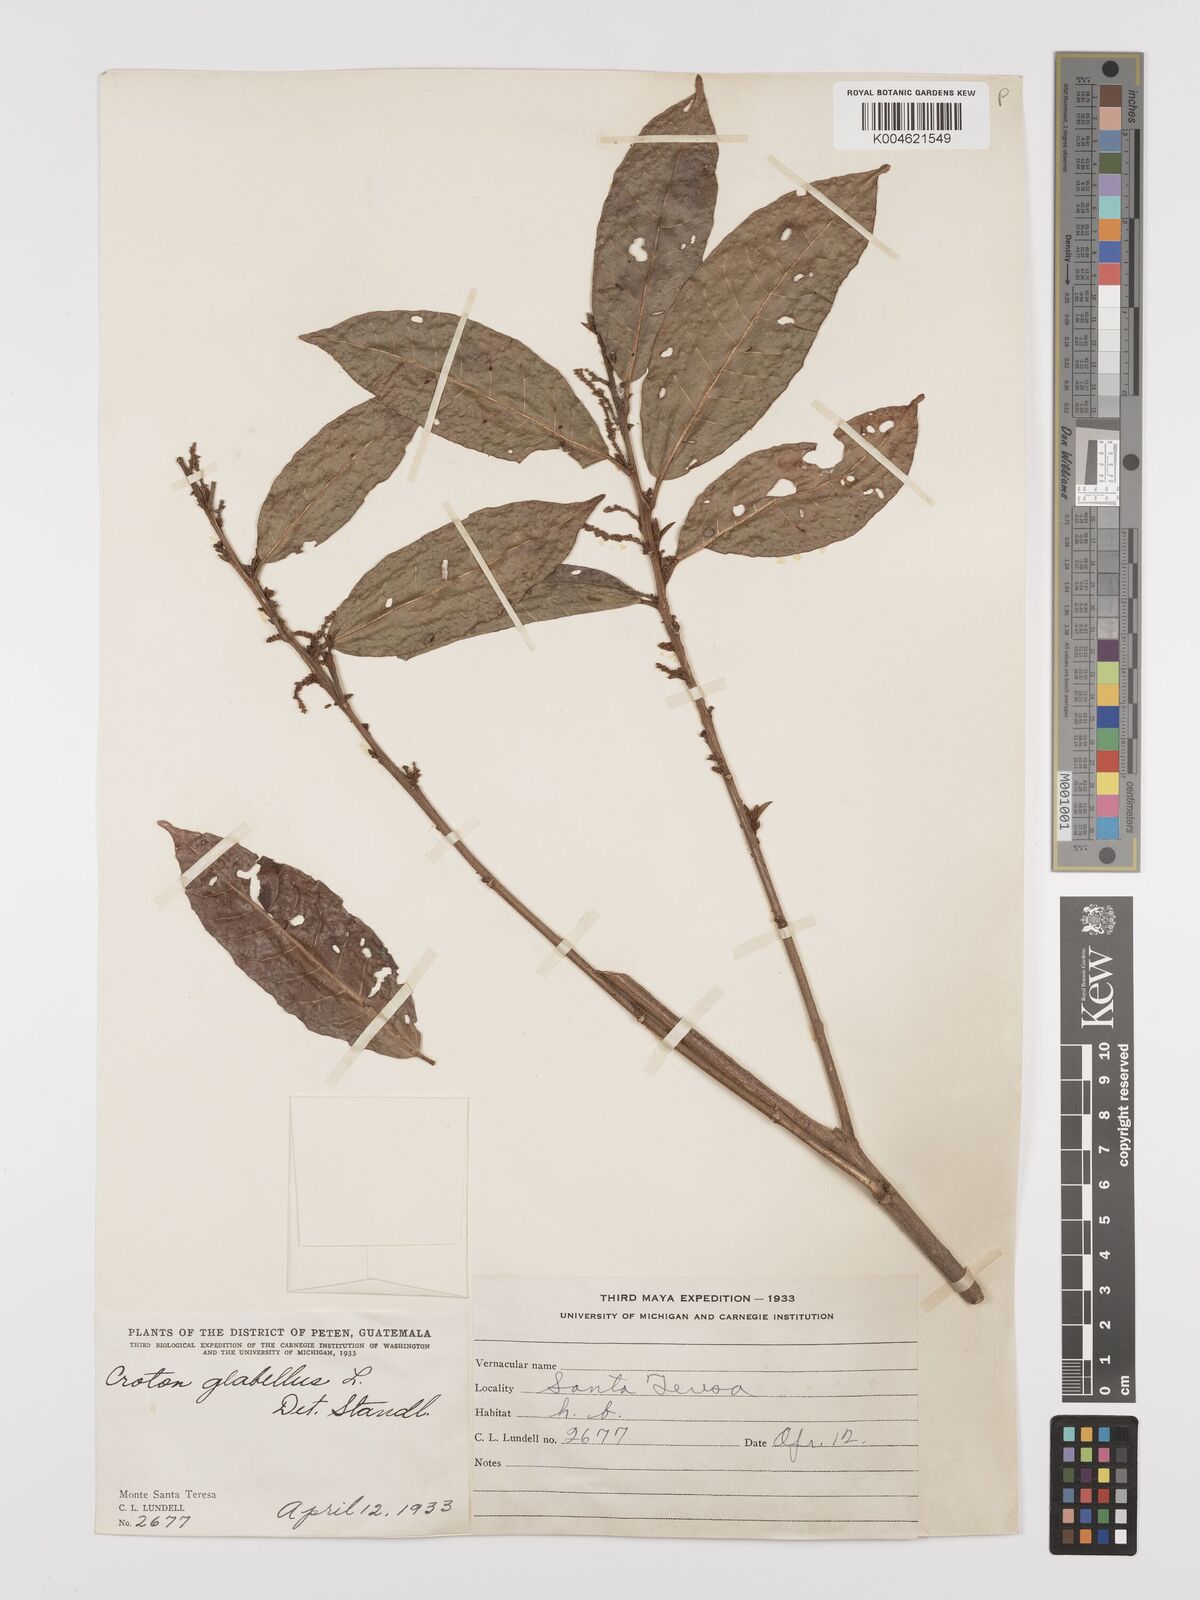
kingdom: Plantae
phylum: Tracheophyta
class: Magnoliopsida
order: Malpighiales
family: Euphorbiaceae
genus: Croton
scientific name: Croton glabellus
